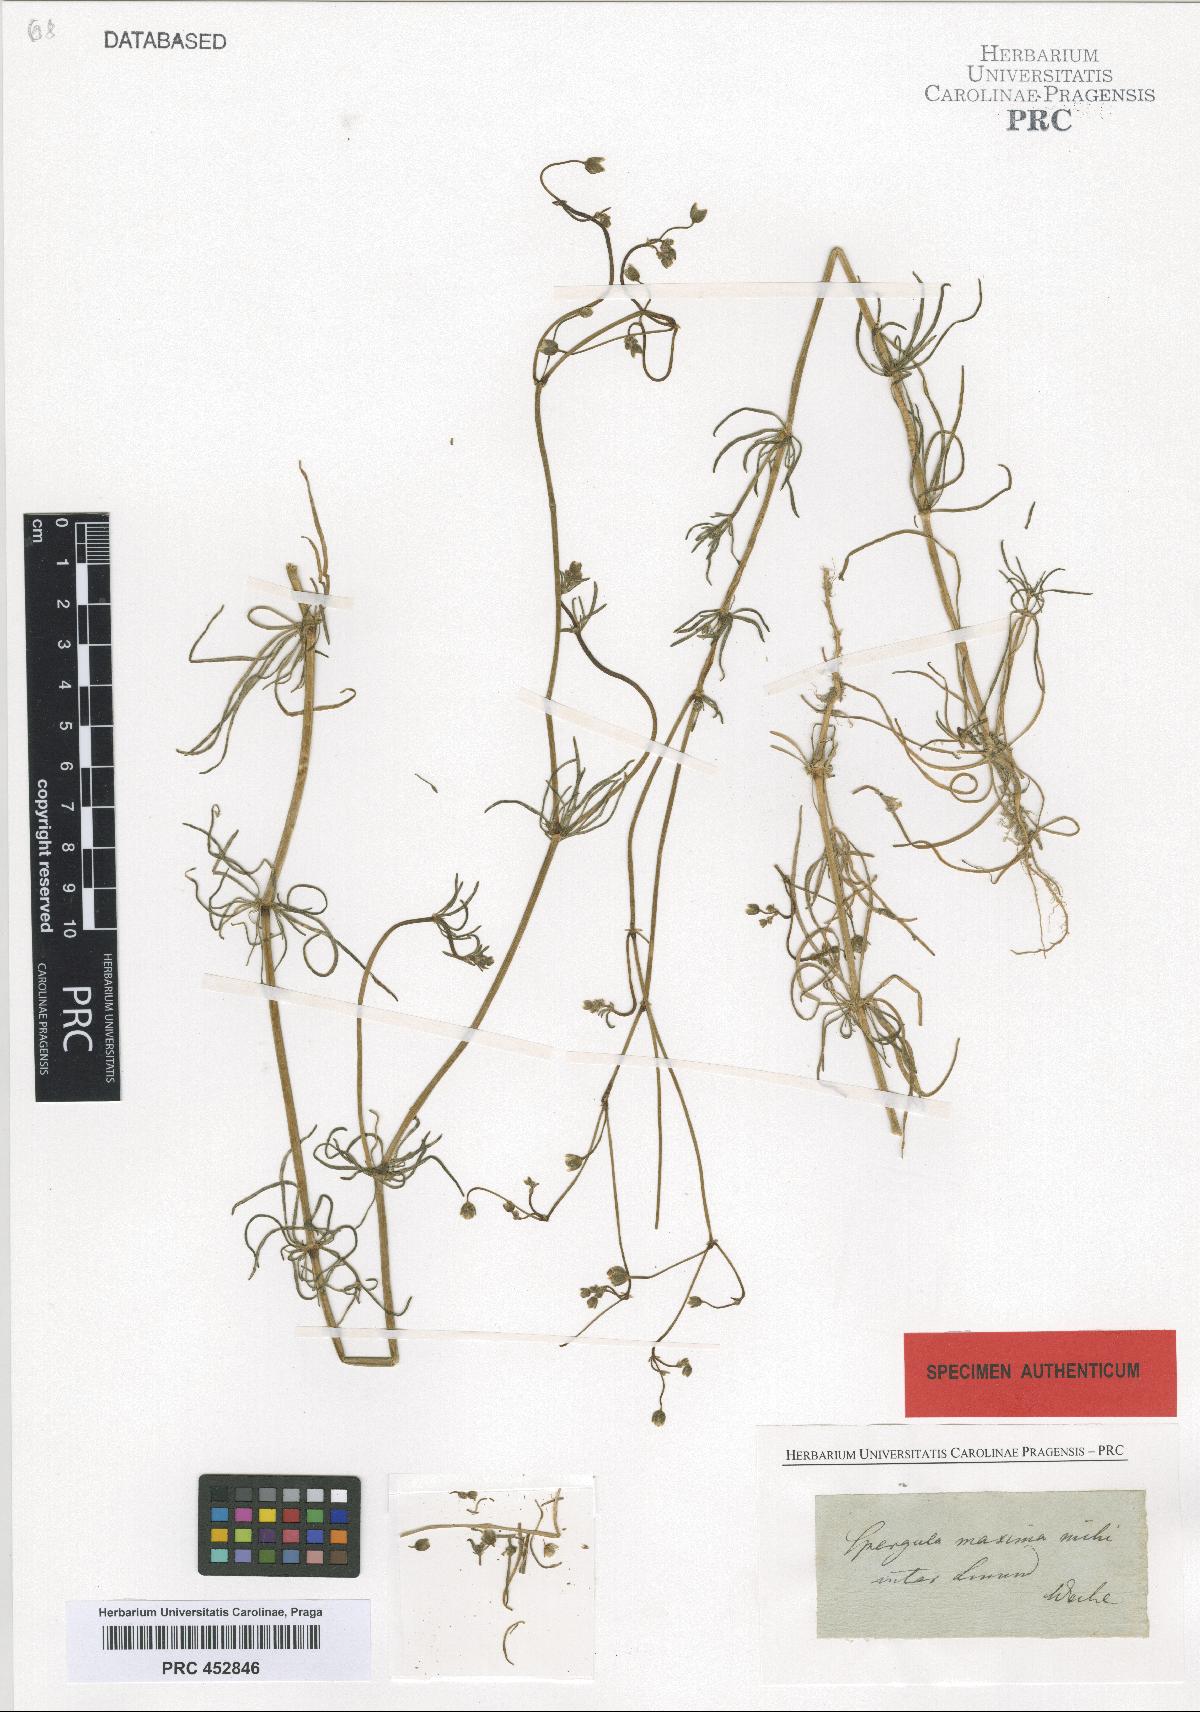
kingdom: Plantae
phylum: Tracheophyta
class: Magnoliopsida
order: Caryophyllales
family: Caryophyllaceae
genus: Spergula
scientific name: Spergula arvensis
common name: Corn spurrey
